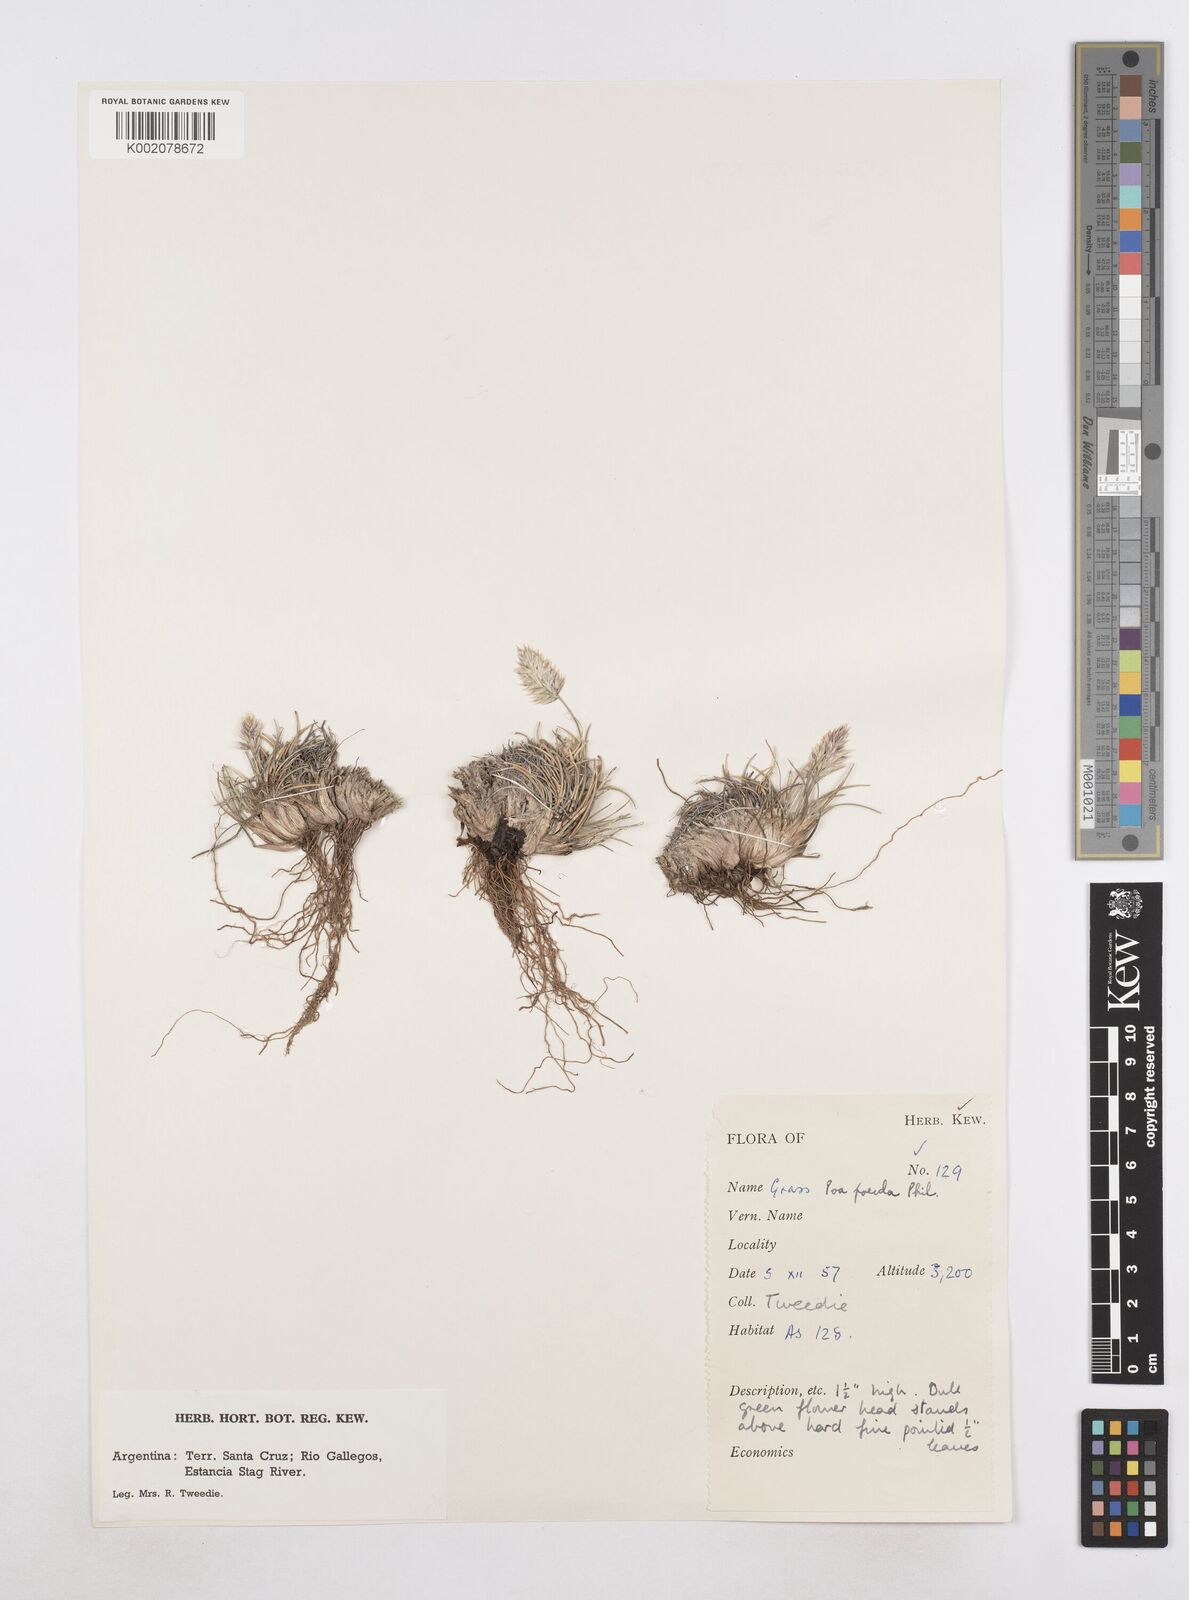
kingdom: Plantae
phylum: Tracheophyta
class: Liliopsida
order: Poales
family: Poaceae
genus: Poa
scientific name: Poa spiciformis
